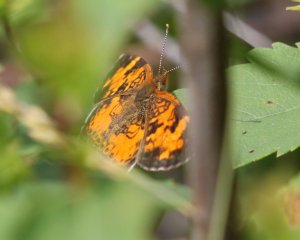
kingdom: Animalia
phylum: Arthropoda
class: Insecta
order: Lepidoptera
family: Nymphalidae
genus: Phyciodes
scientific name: Phyciodes tharos
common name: Northern Crescent
